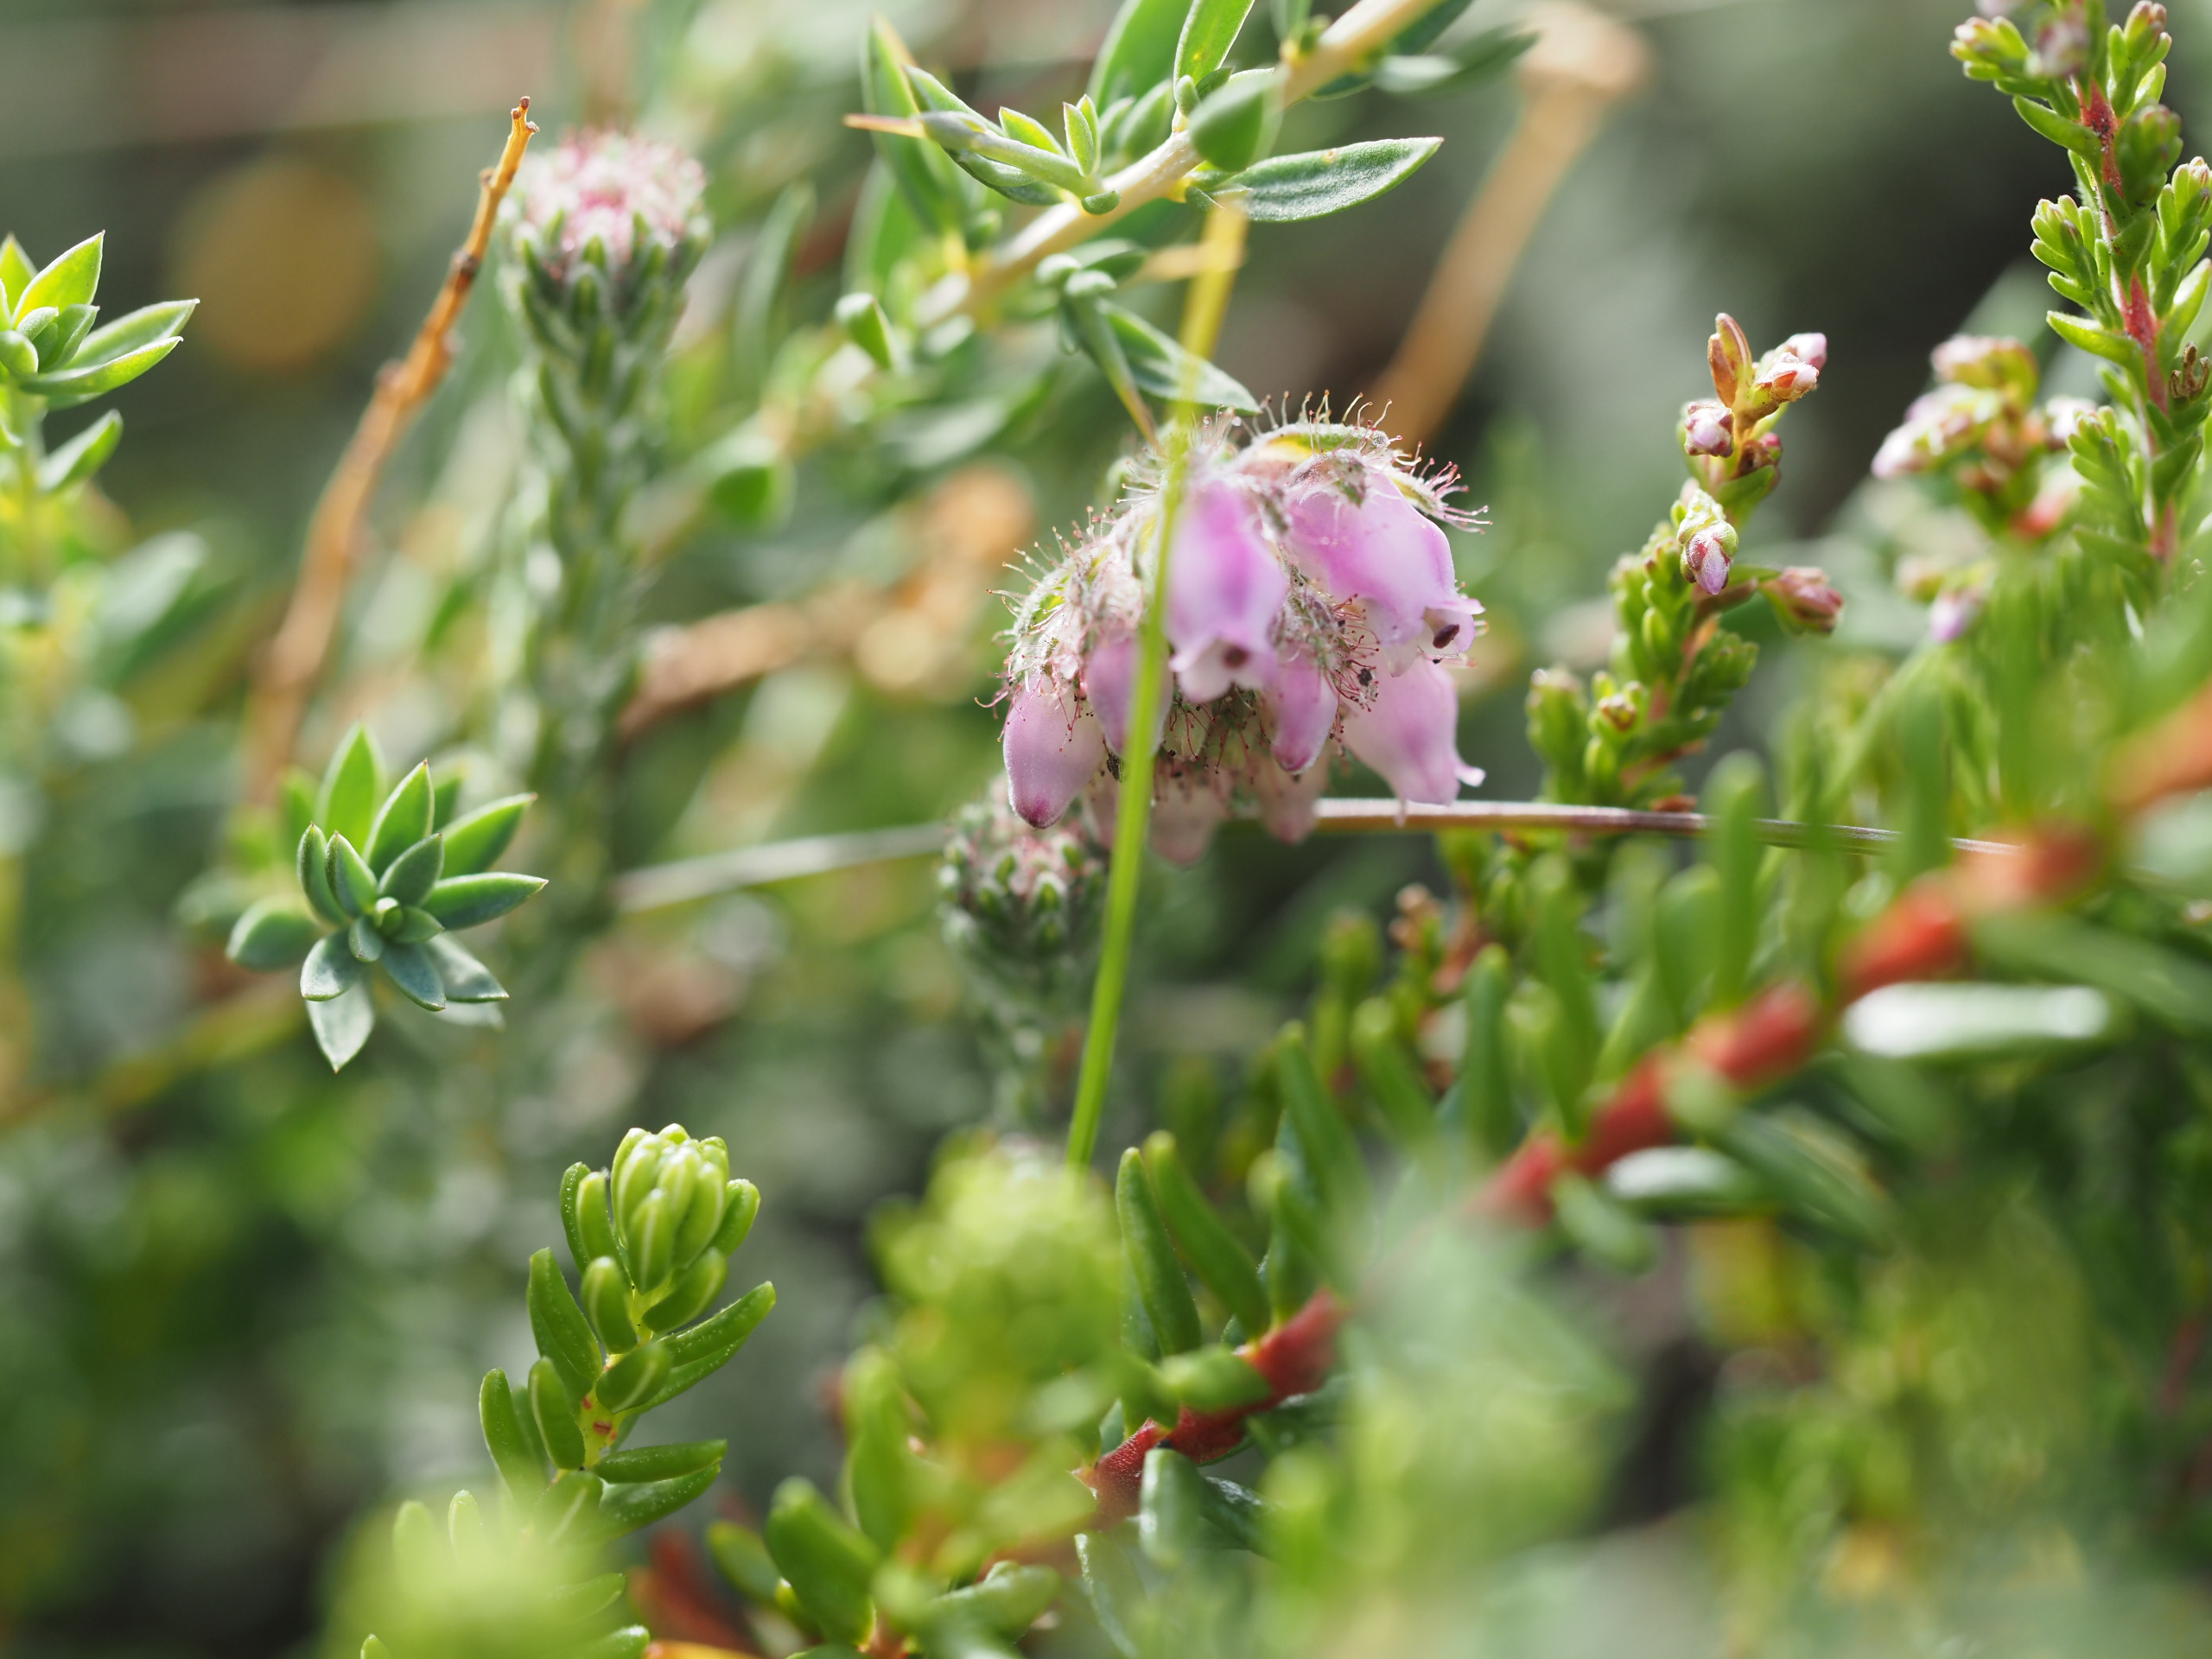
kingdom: Plantae
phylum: Tracheophyta
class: Magnoliopsida
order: Ericales
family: Ericaceae
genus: Erica
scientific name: Erica tetralix
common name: Klokkelyng
